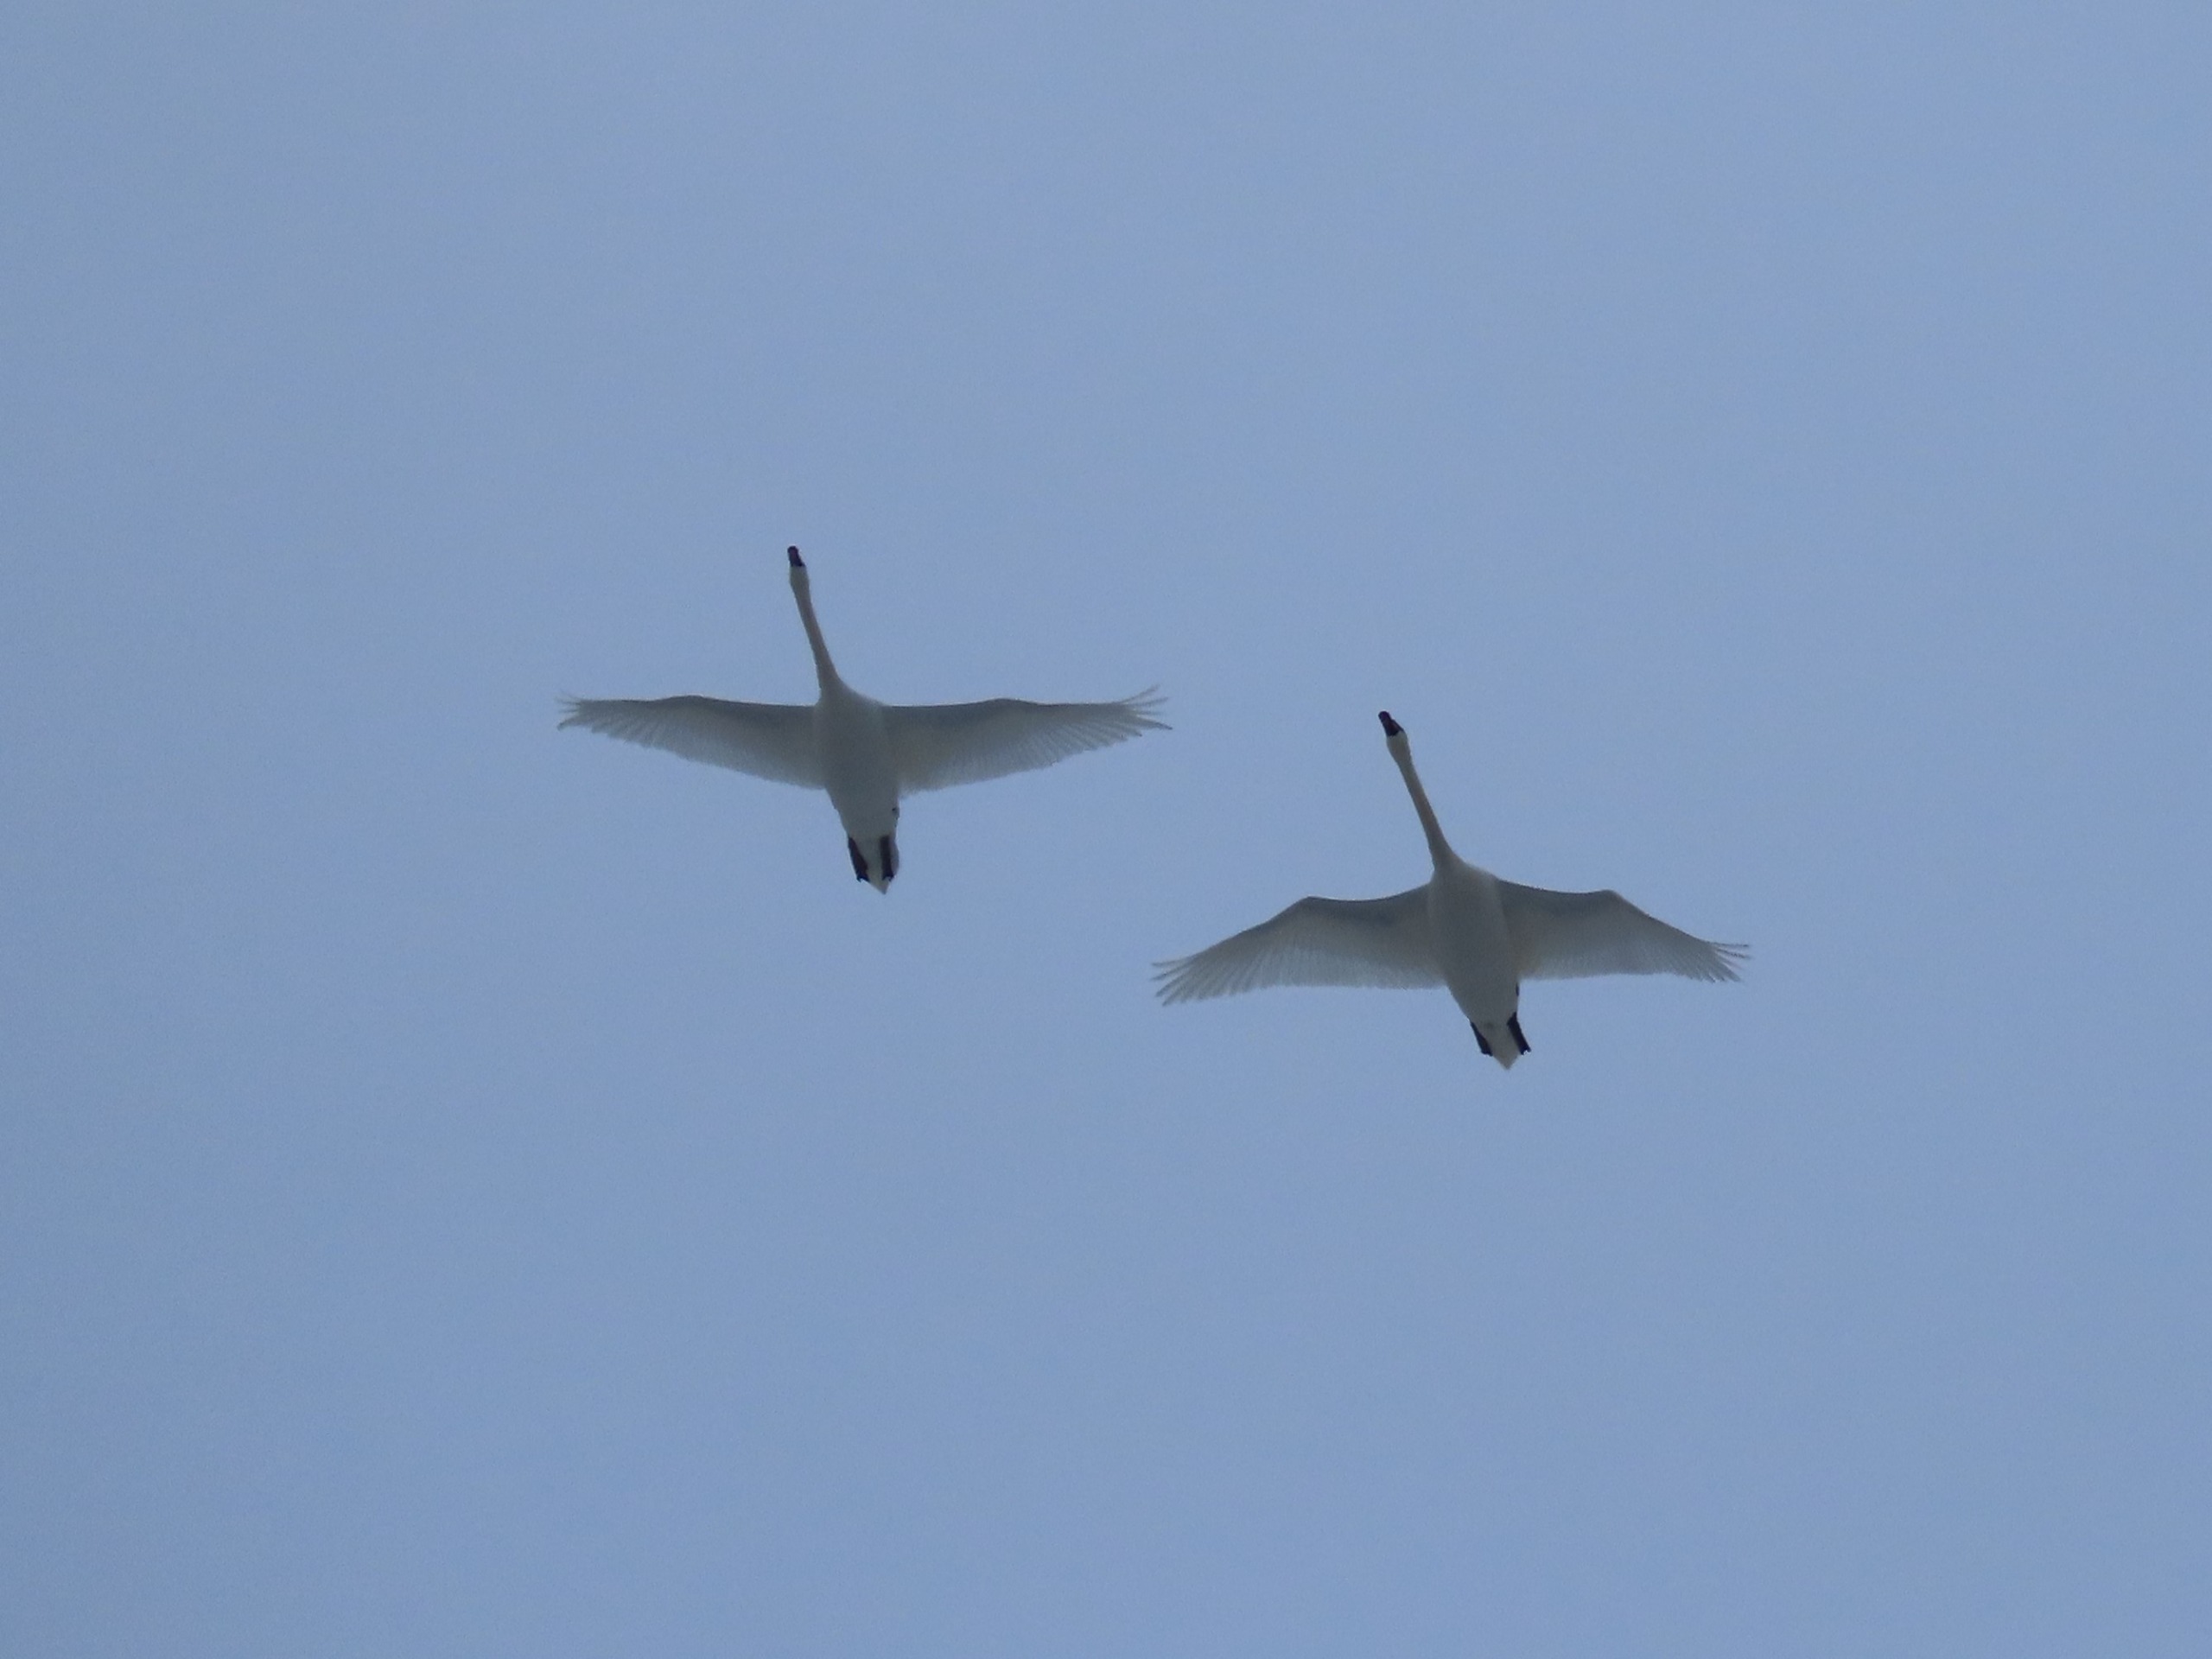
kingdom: Animalia
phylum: Chordata
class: Aves
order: Anseriformes
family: Anatidae
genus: Cygnus
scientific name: Cygnus olor
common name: Knopsvane
